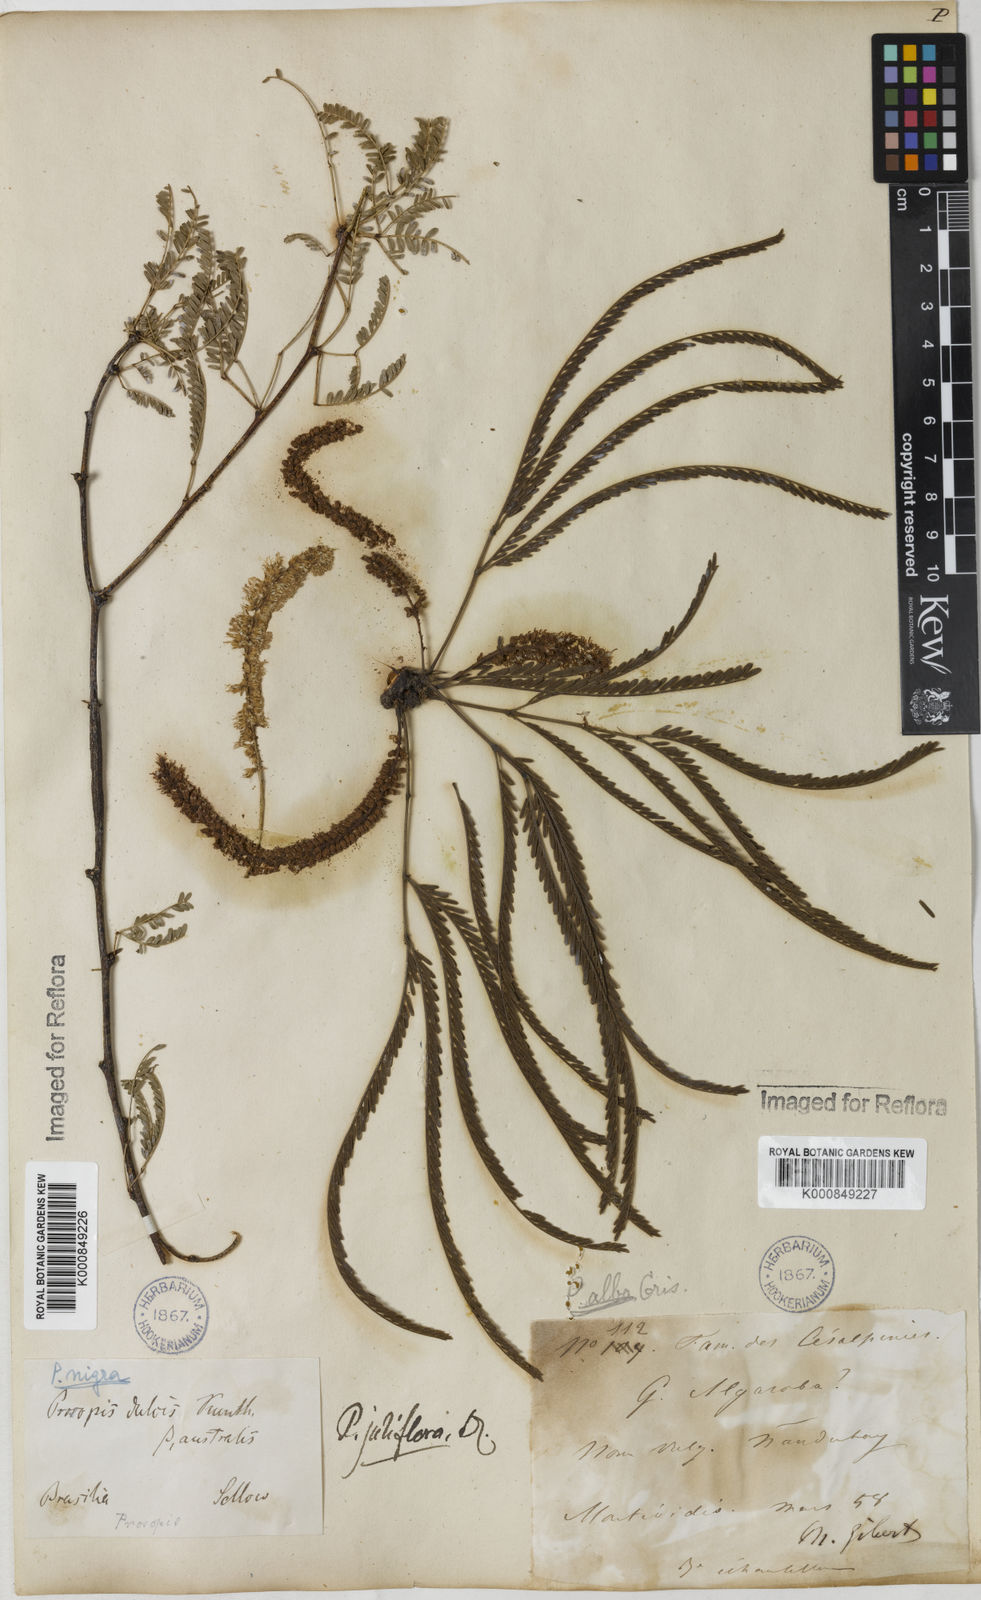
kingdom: Plantae
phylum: Tracheophyta
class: Magnoliopsida
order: Fabales
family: Fabaceae
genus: Prosopis
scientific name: Prosopis juliflora
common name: Mesquite
